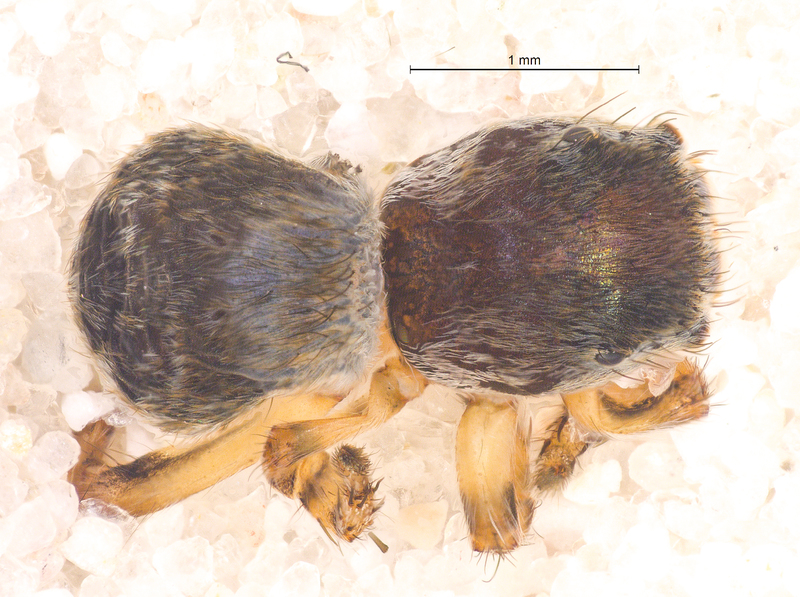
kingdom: Animalia
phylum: Arthropoda
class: Arachnida
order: Araneae
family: Salticidae
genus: Attulus
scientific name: Attulus saltator
